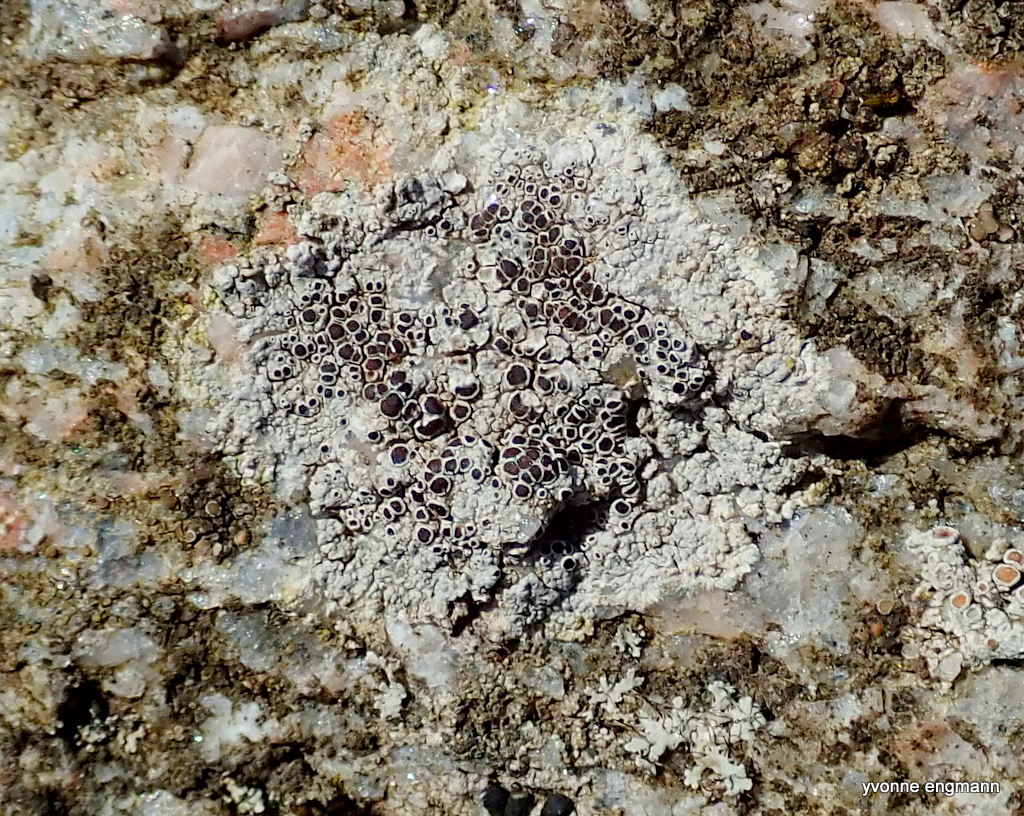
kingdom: Fungi
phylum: Ascomycota
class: Lecanoromycetes
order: Lecanorales
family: Lecanoraceae
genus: Lecanora
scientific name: Lecanora campestris
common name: mur-kantskivelav
